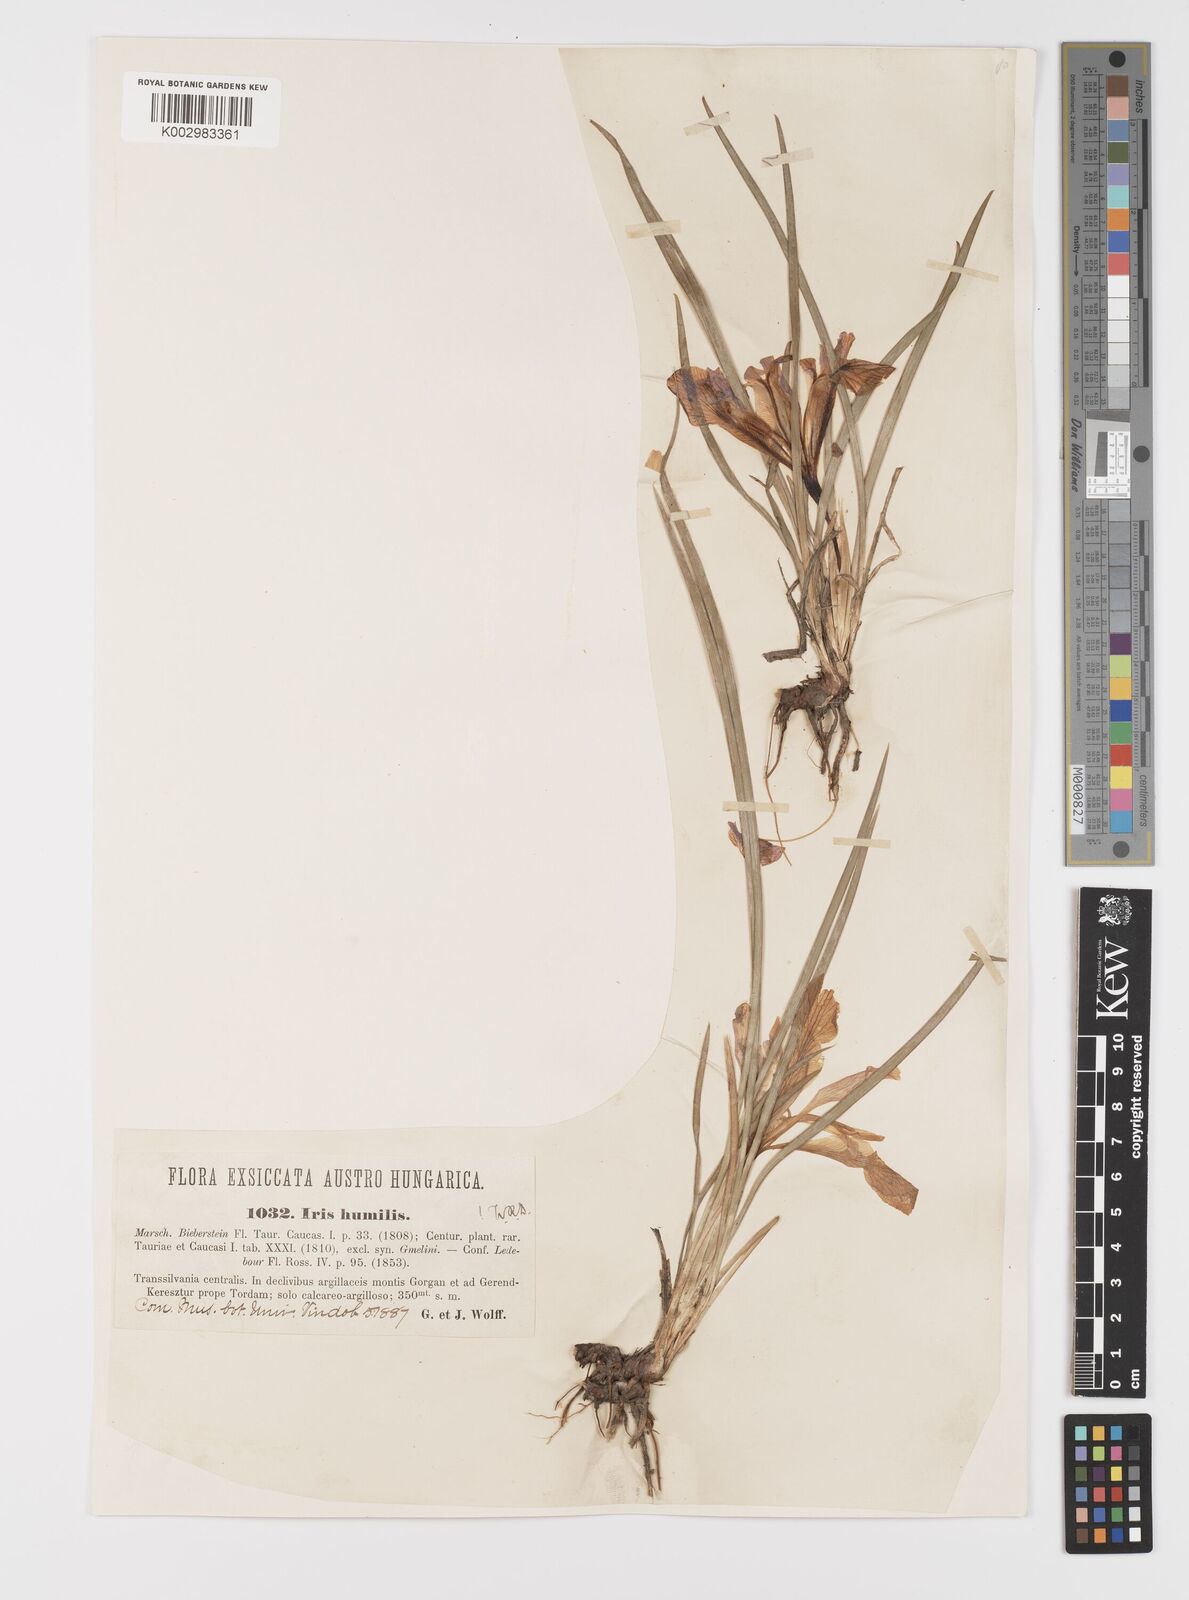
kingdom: Plantae
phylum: Tracheophyta
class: Liliopsida
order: Asparagales
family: Iridaceae
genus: Iris
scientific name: Iris pontica
